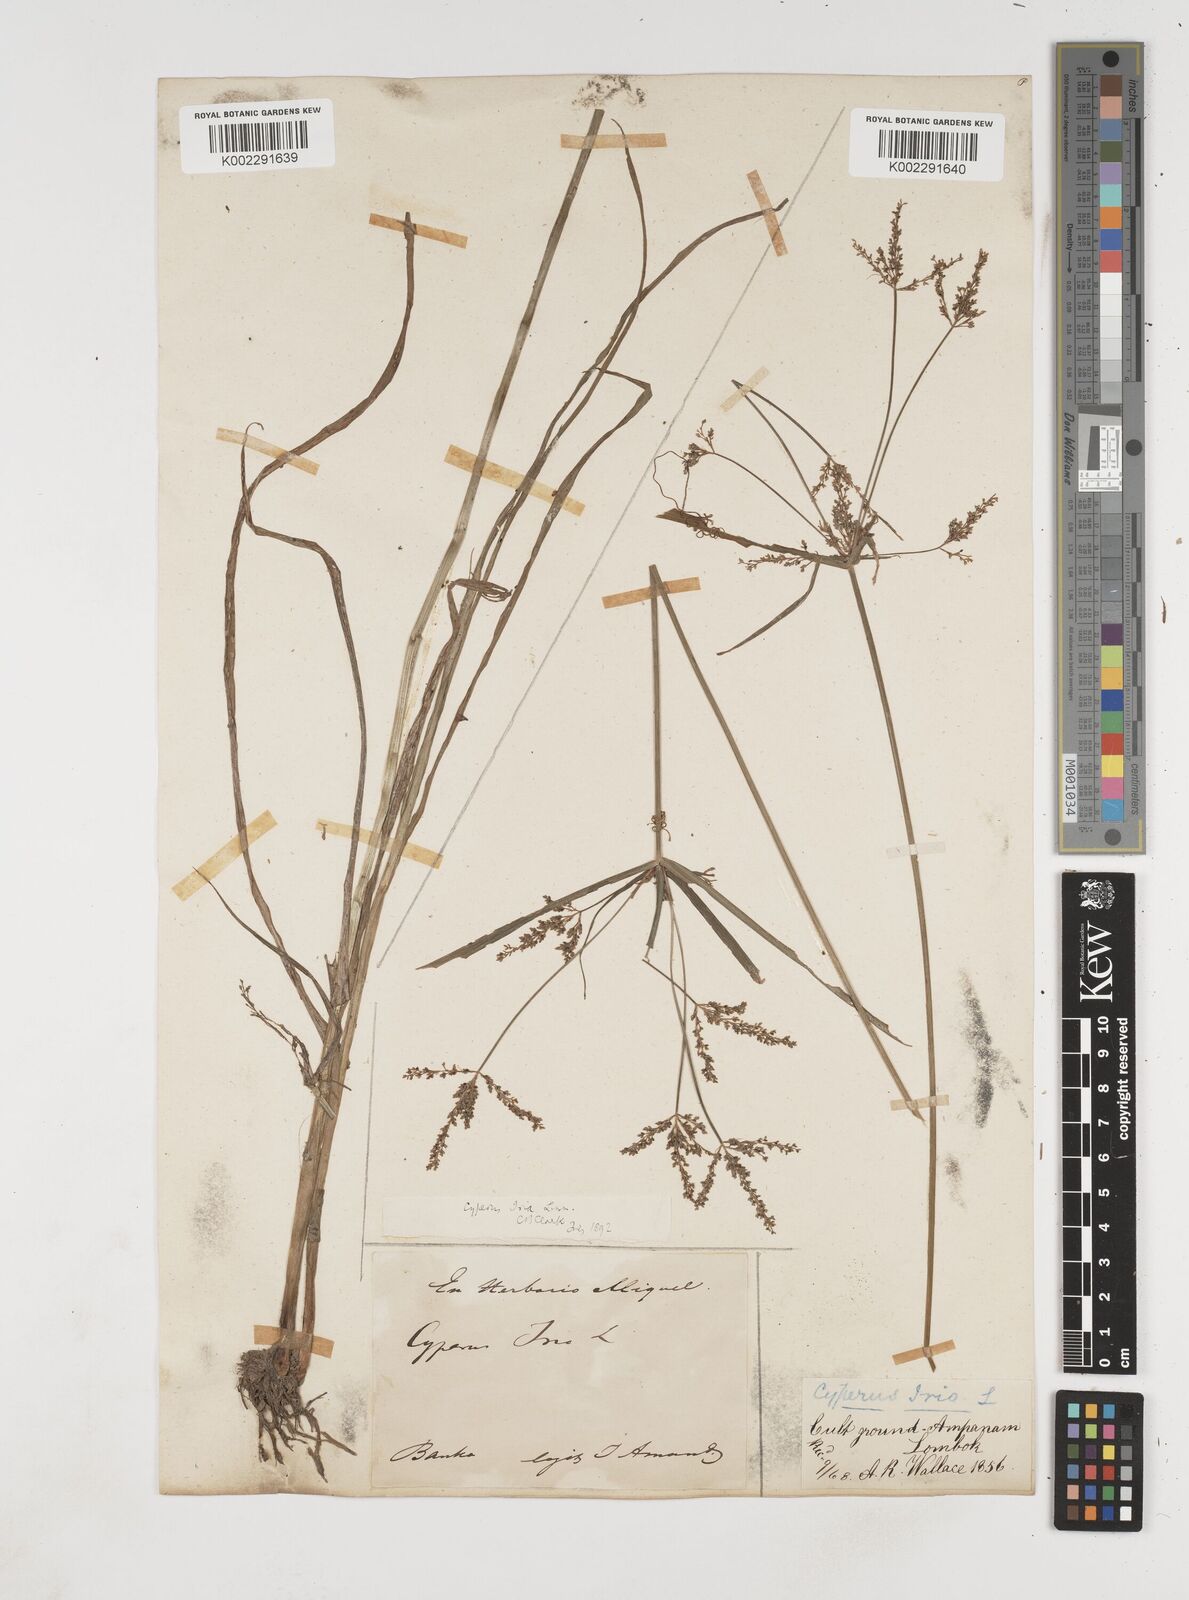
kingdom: Plantae
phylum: Tracheophyta
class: Liliopsida
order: Poales
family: Cyperaceae
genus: Cyperus
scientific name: Cyperus iria
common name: Ricefield flatsedge
